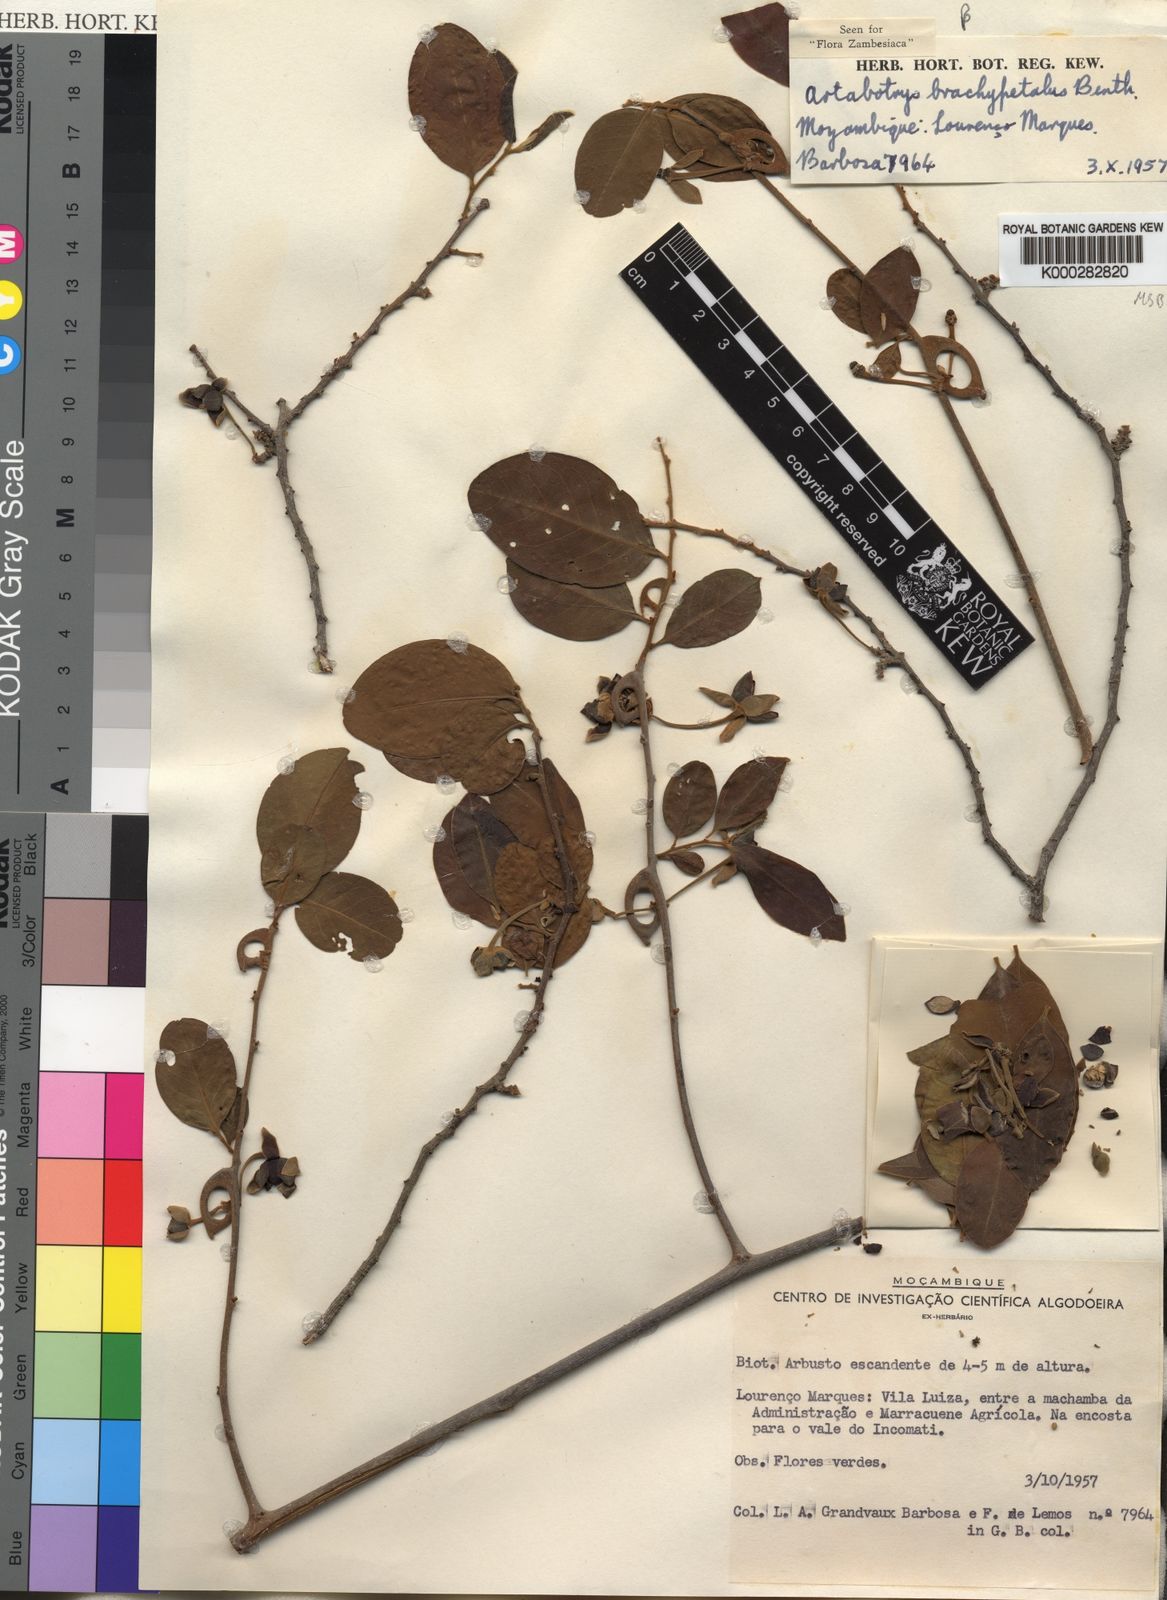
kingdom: Plantae
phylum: Tracheophyta
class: Magnoliopsida
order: Magnoliales
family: Annonaceae
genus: Artabotrys
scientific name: Artabotrys brachypetalus
